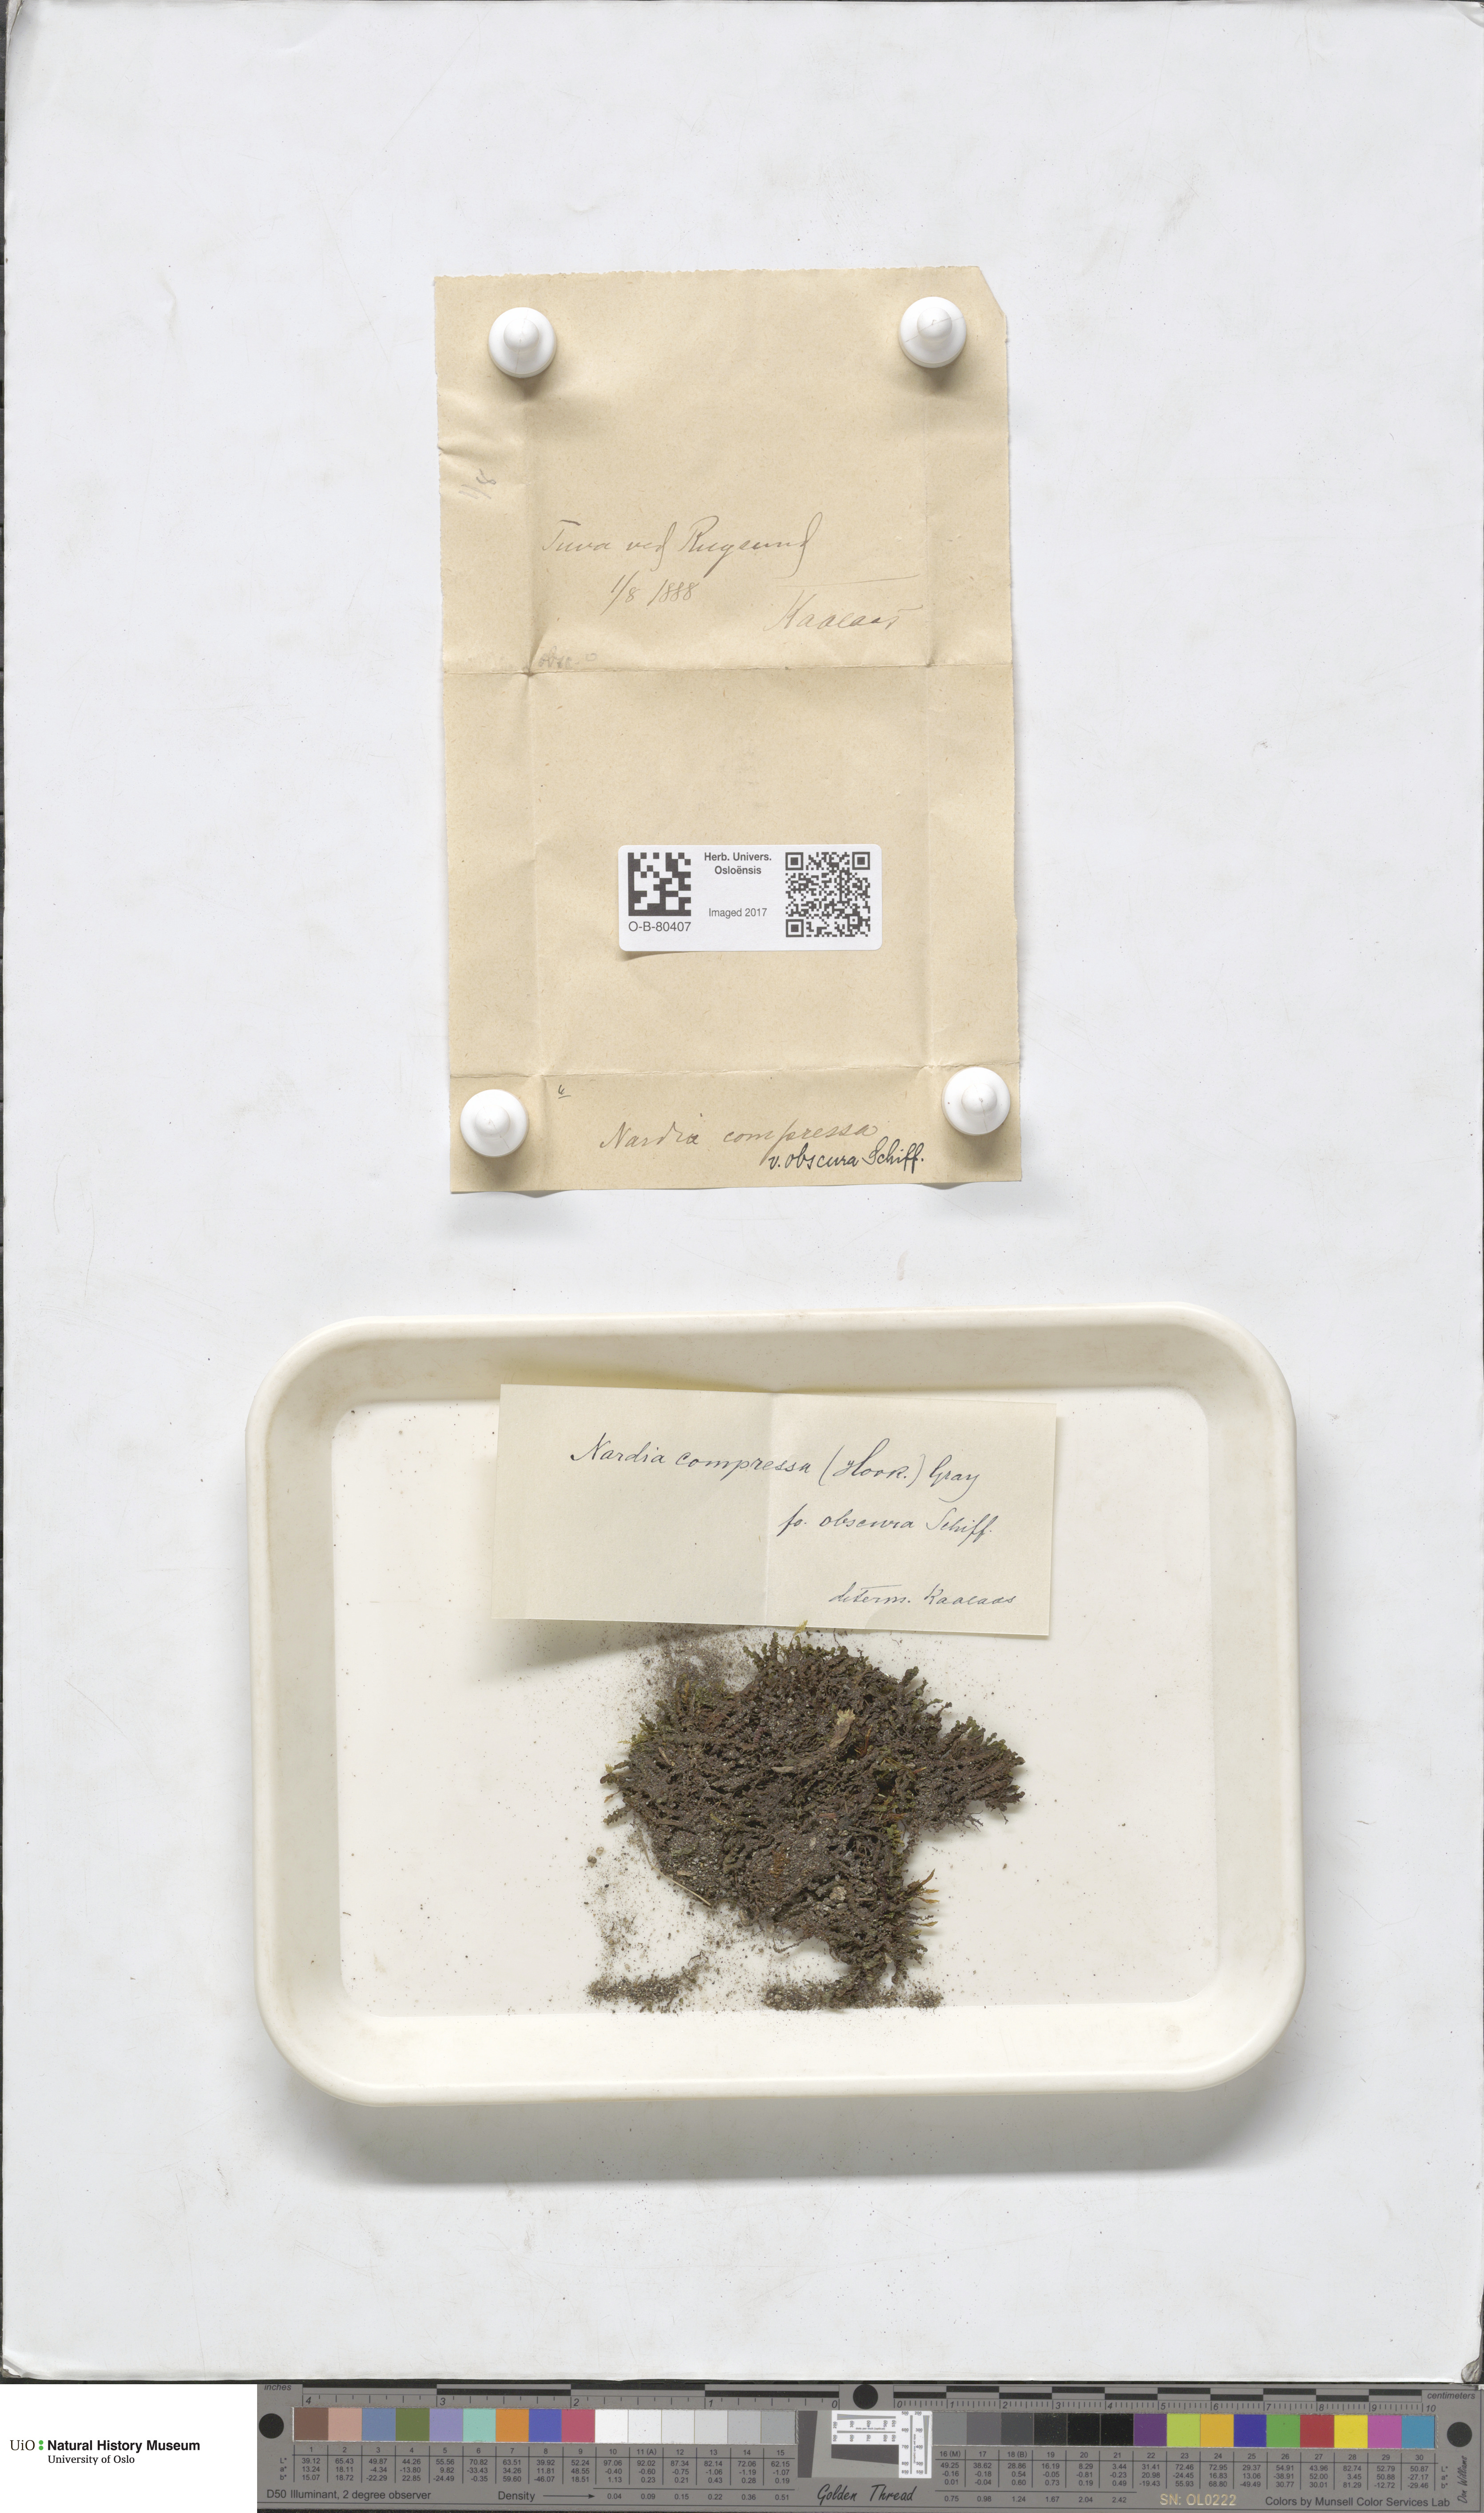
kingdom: Plantae
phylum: Marchantiophyta
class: Jungermanniopsida
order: Jungermanniales
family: Gymnomitriaceae
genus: Nardia
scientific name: Nardia compressa
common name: Compressed flapwort
